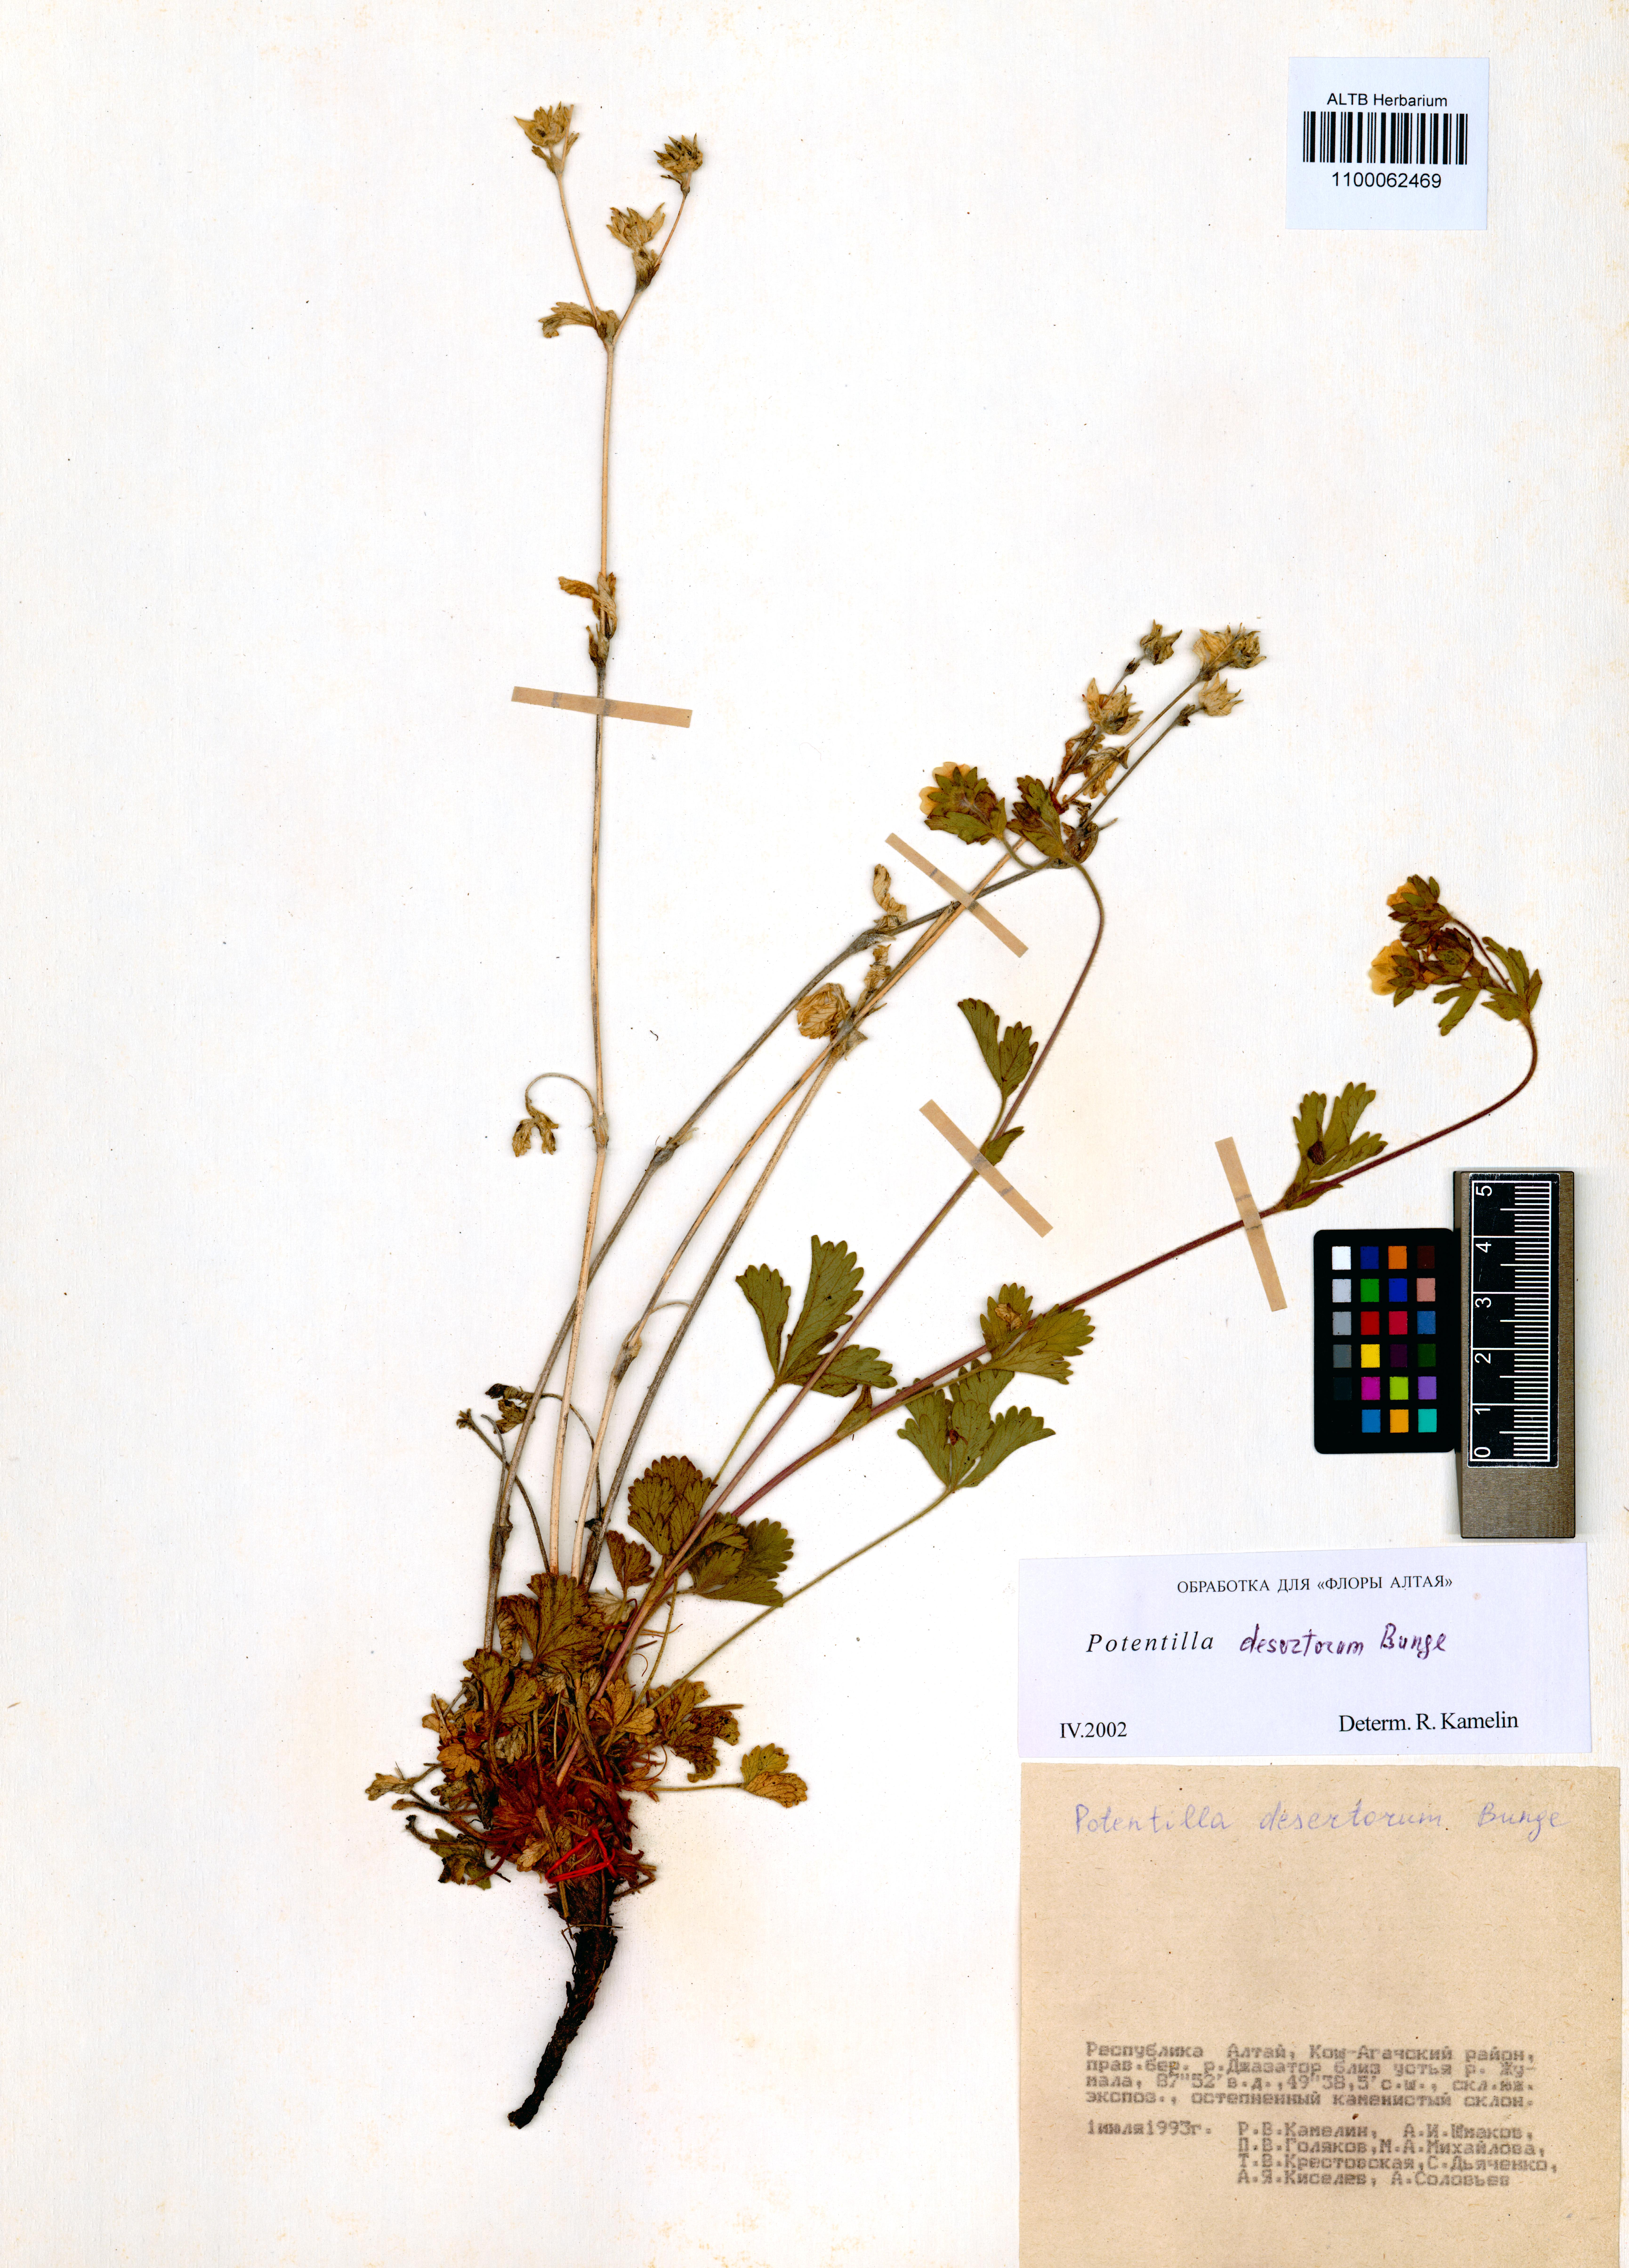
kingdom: Plantae
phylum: Tracheophyta
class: Magnoliopsida
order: Rosales
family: Rosaceae
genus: Potentilla
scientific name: Potentilla desertorum
